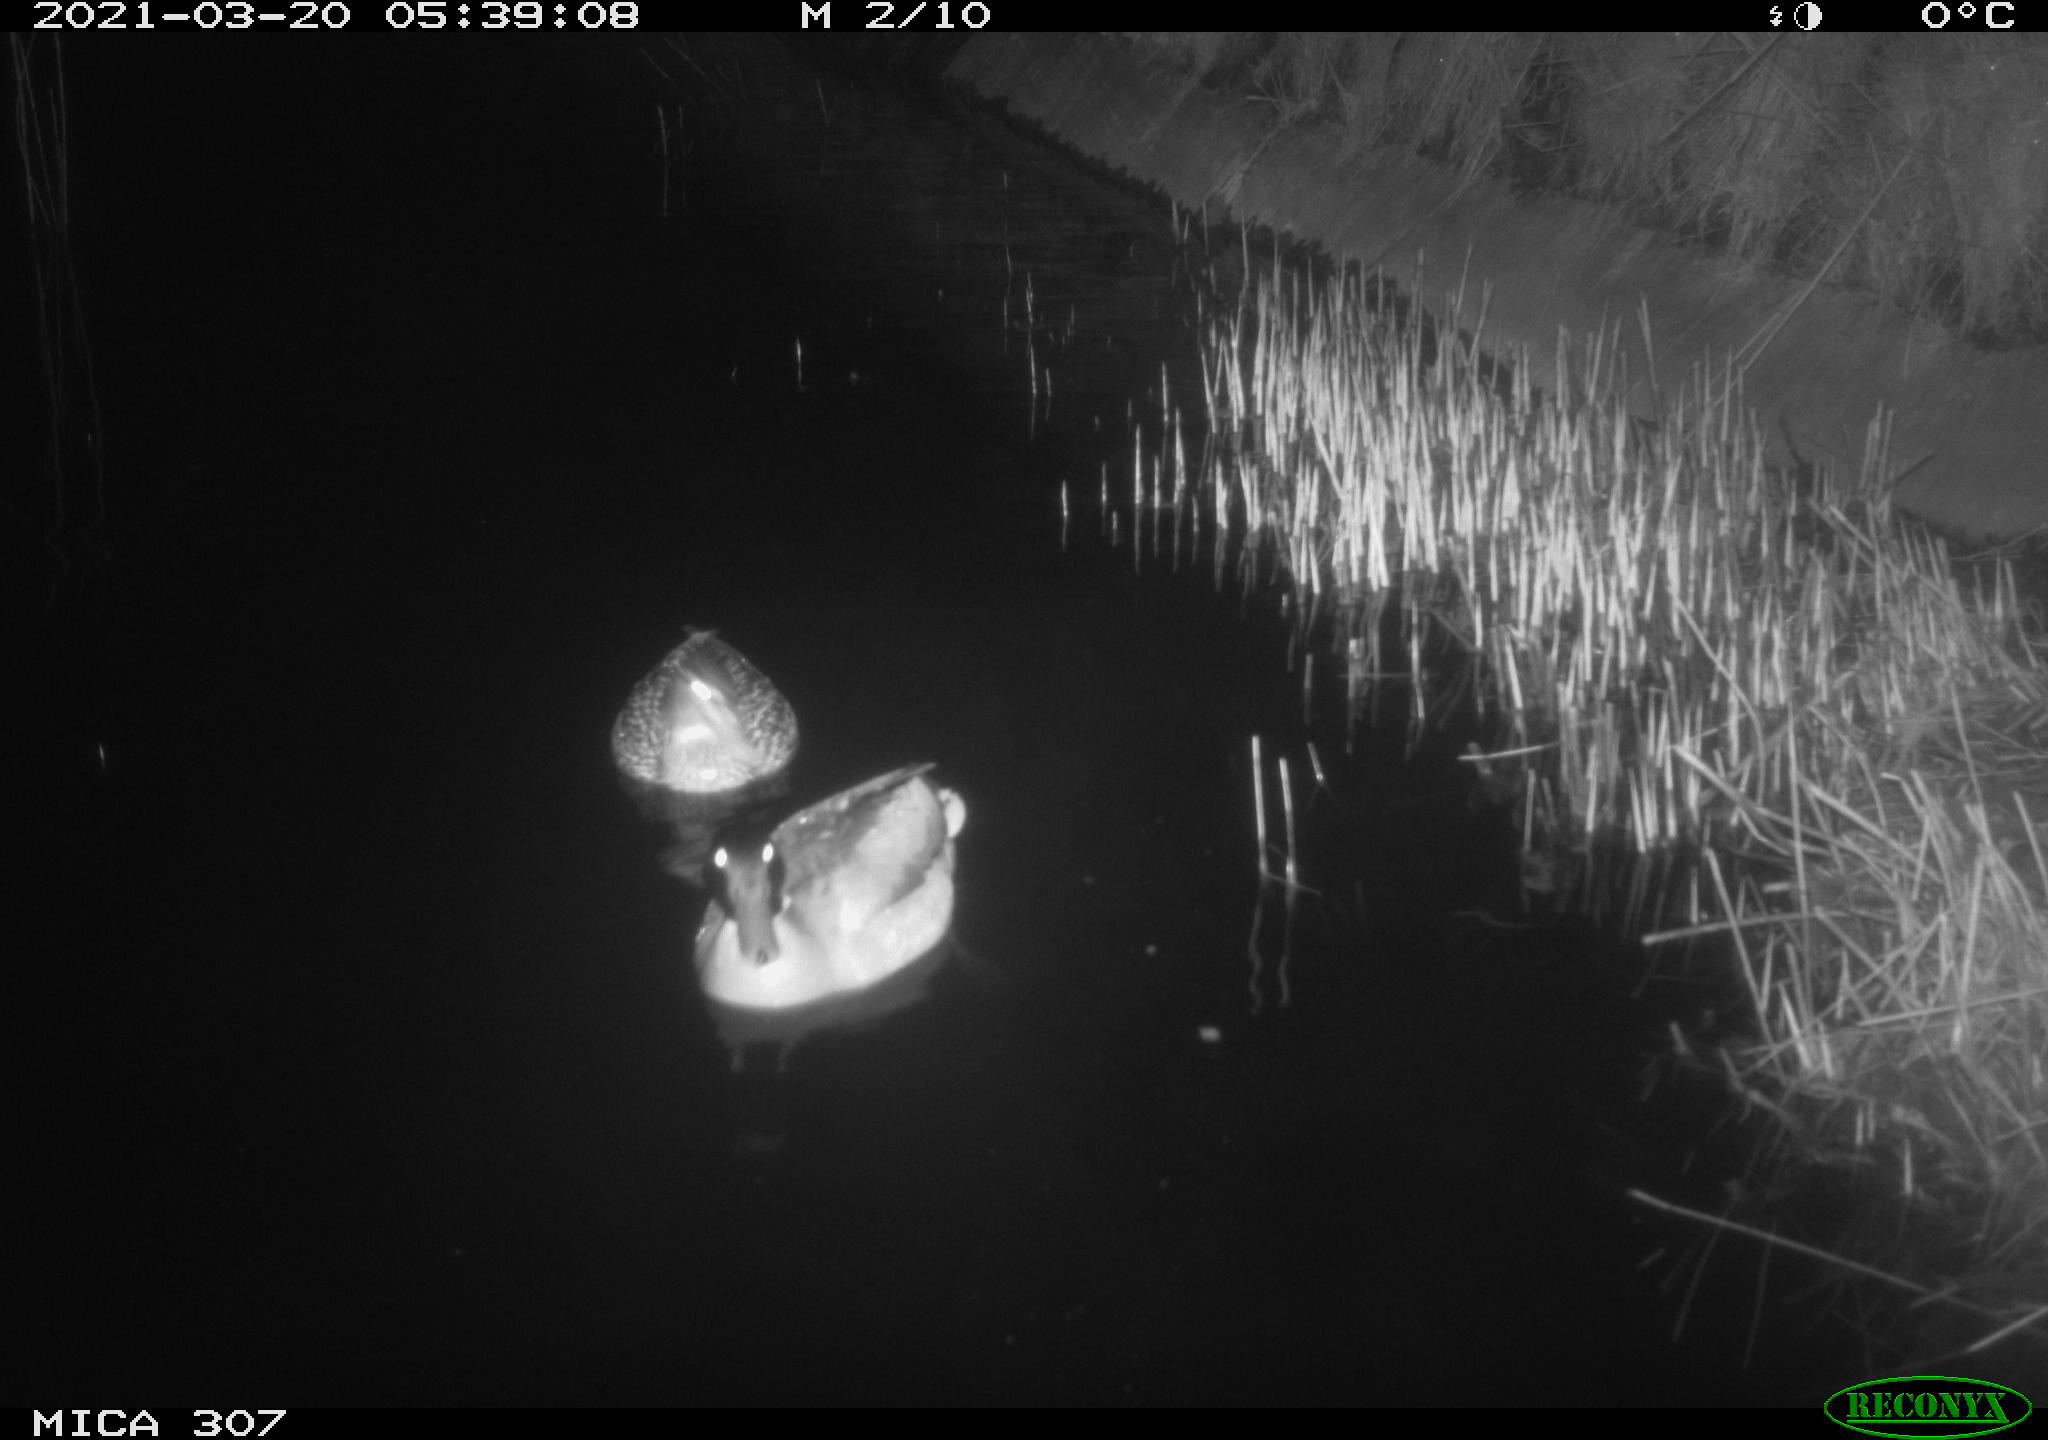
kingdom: Animalia
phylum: Chordata
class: Aves
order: Anseriformes
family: Anatidae
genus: Anas
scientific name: Anas platyrhynchos
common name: Mallard
